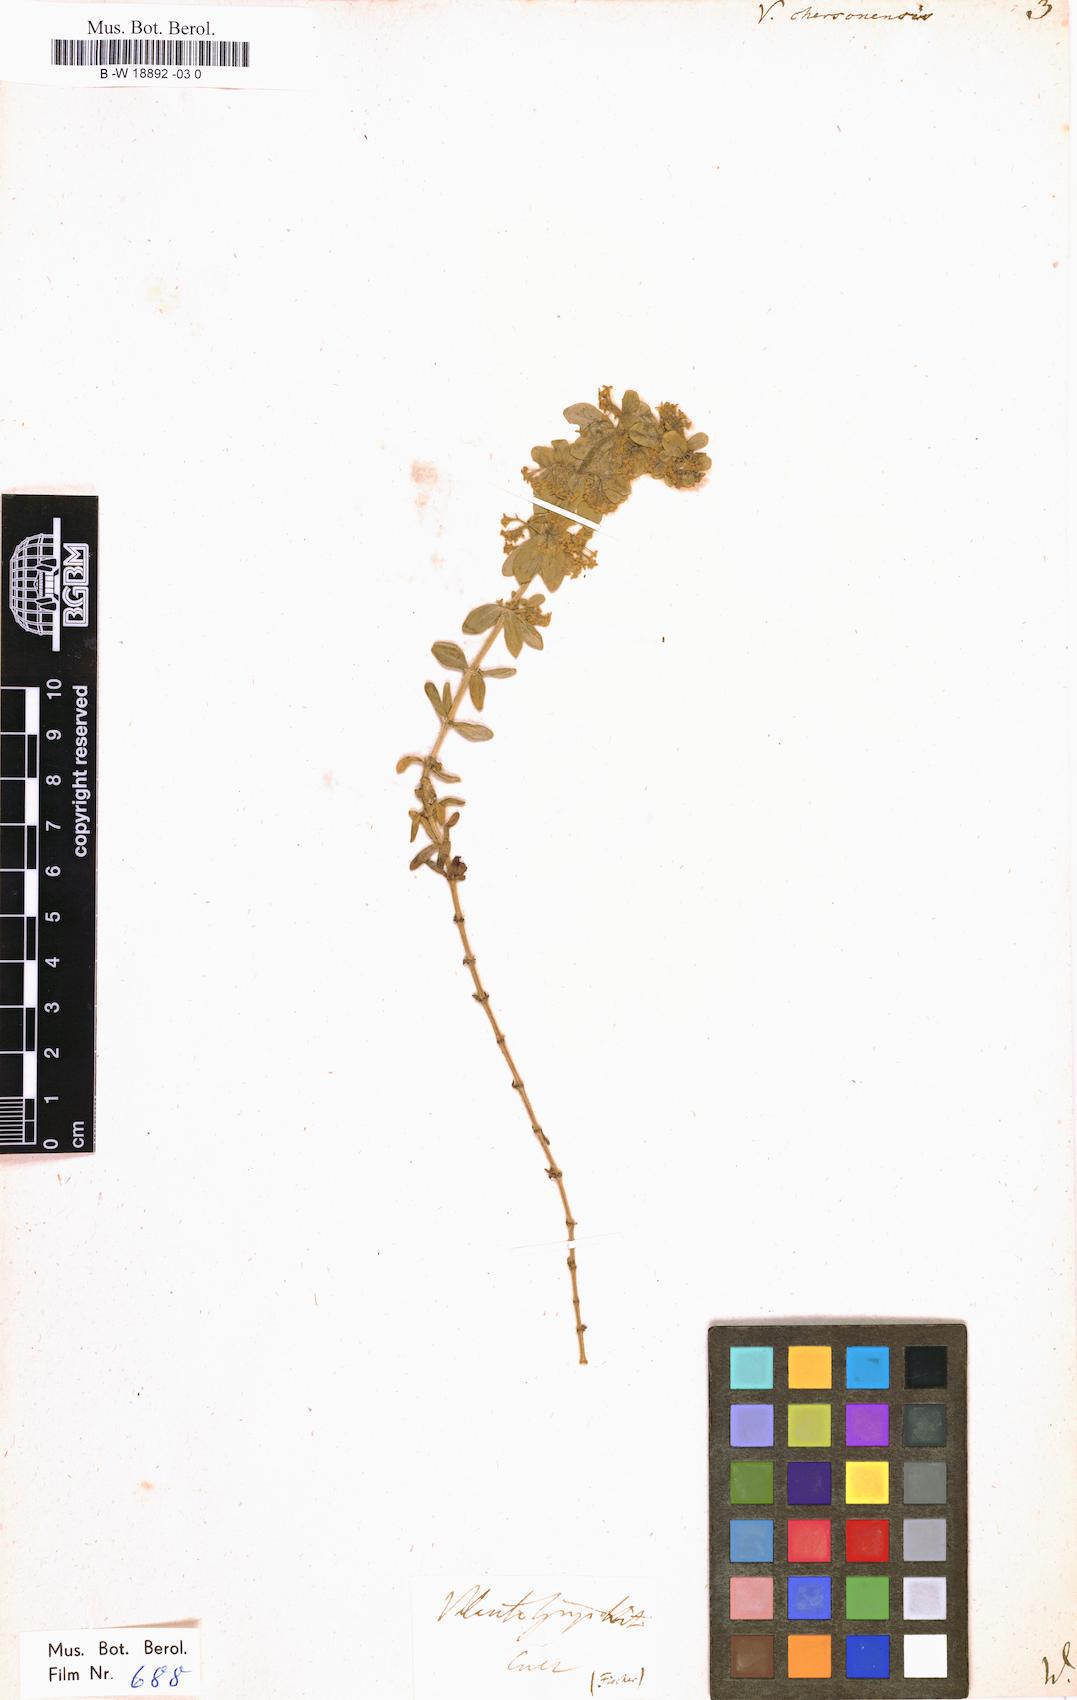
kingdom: Plantae
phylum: Tracheophyta
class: Magnoliopsida
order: Gentianales
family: Rubiaceae
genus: Cruciata
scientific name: Cruciata taurica
